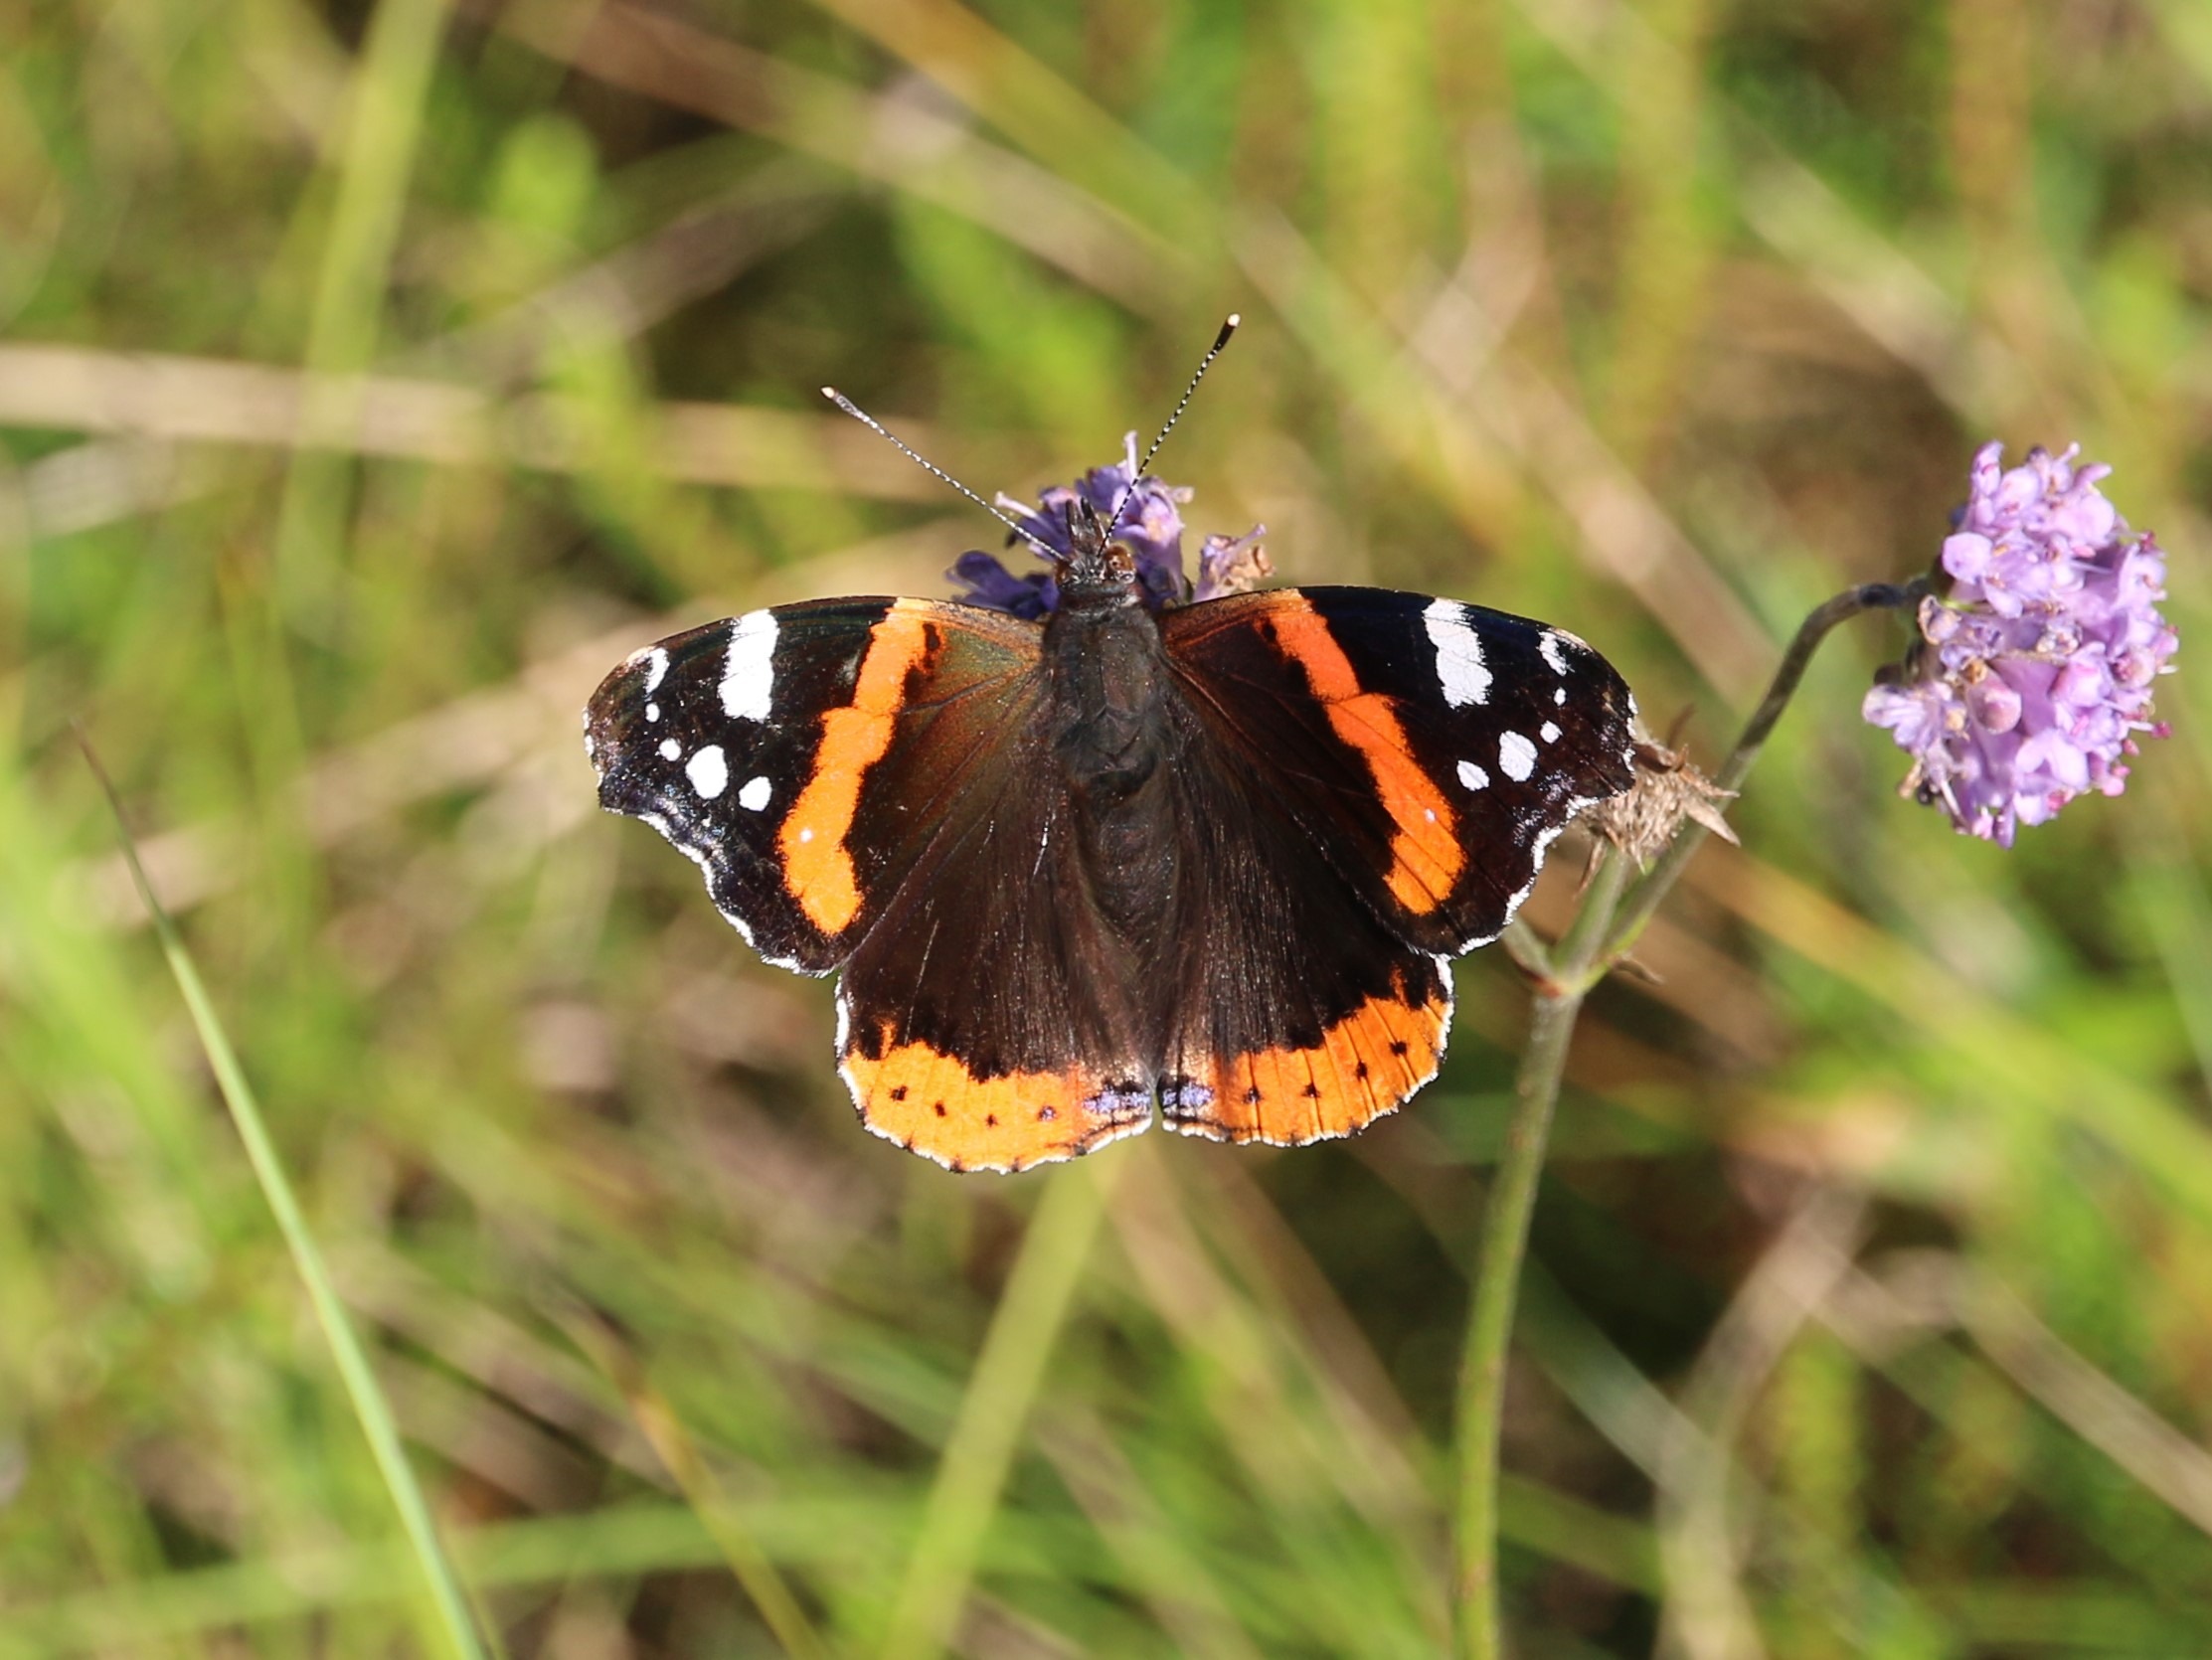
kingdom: Animalia
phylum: Arthropoda
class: Insecta
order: Lepidoptera
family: Nymphalidae
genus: Vanessa
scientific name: Vanessa atalanta
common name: Admiral
